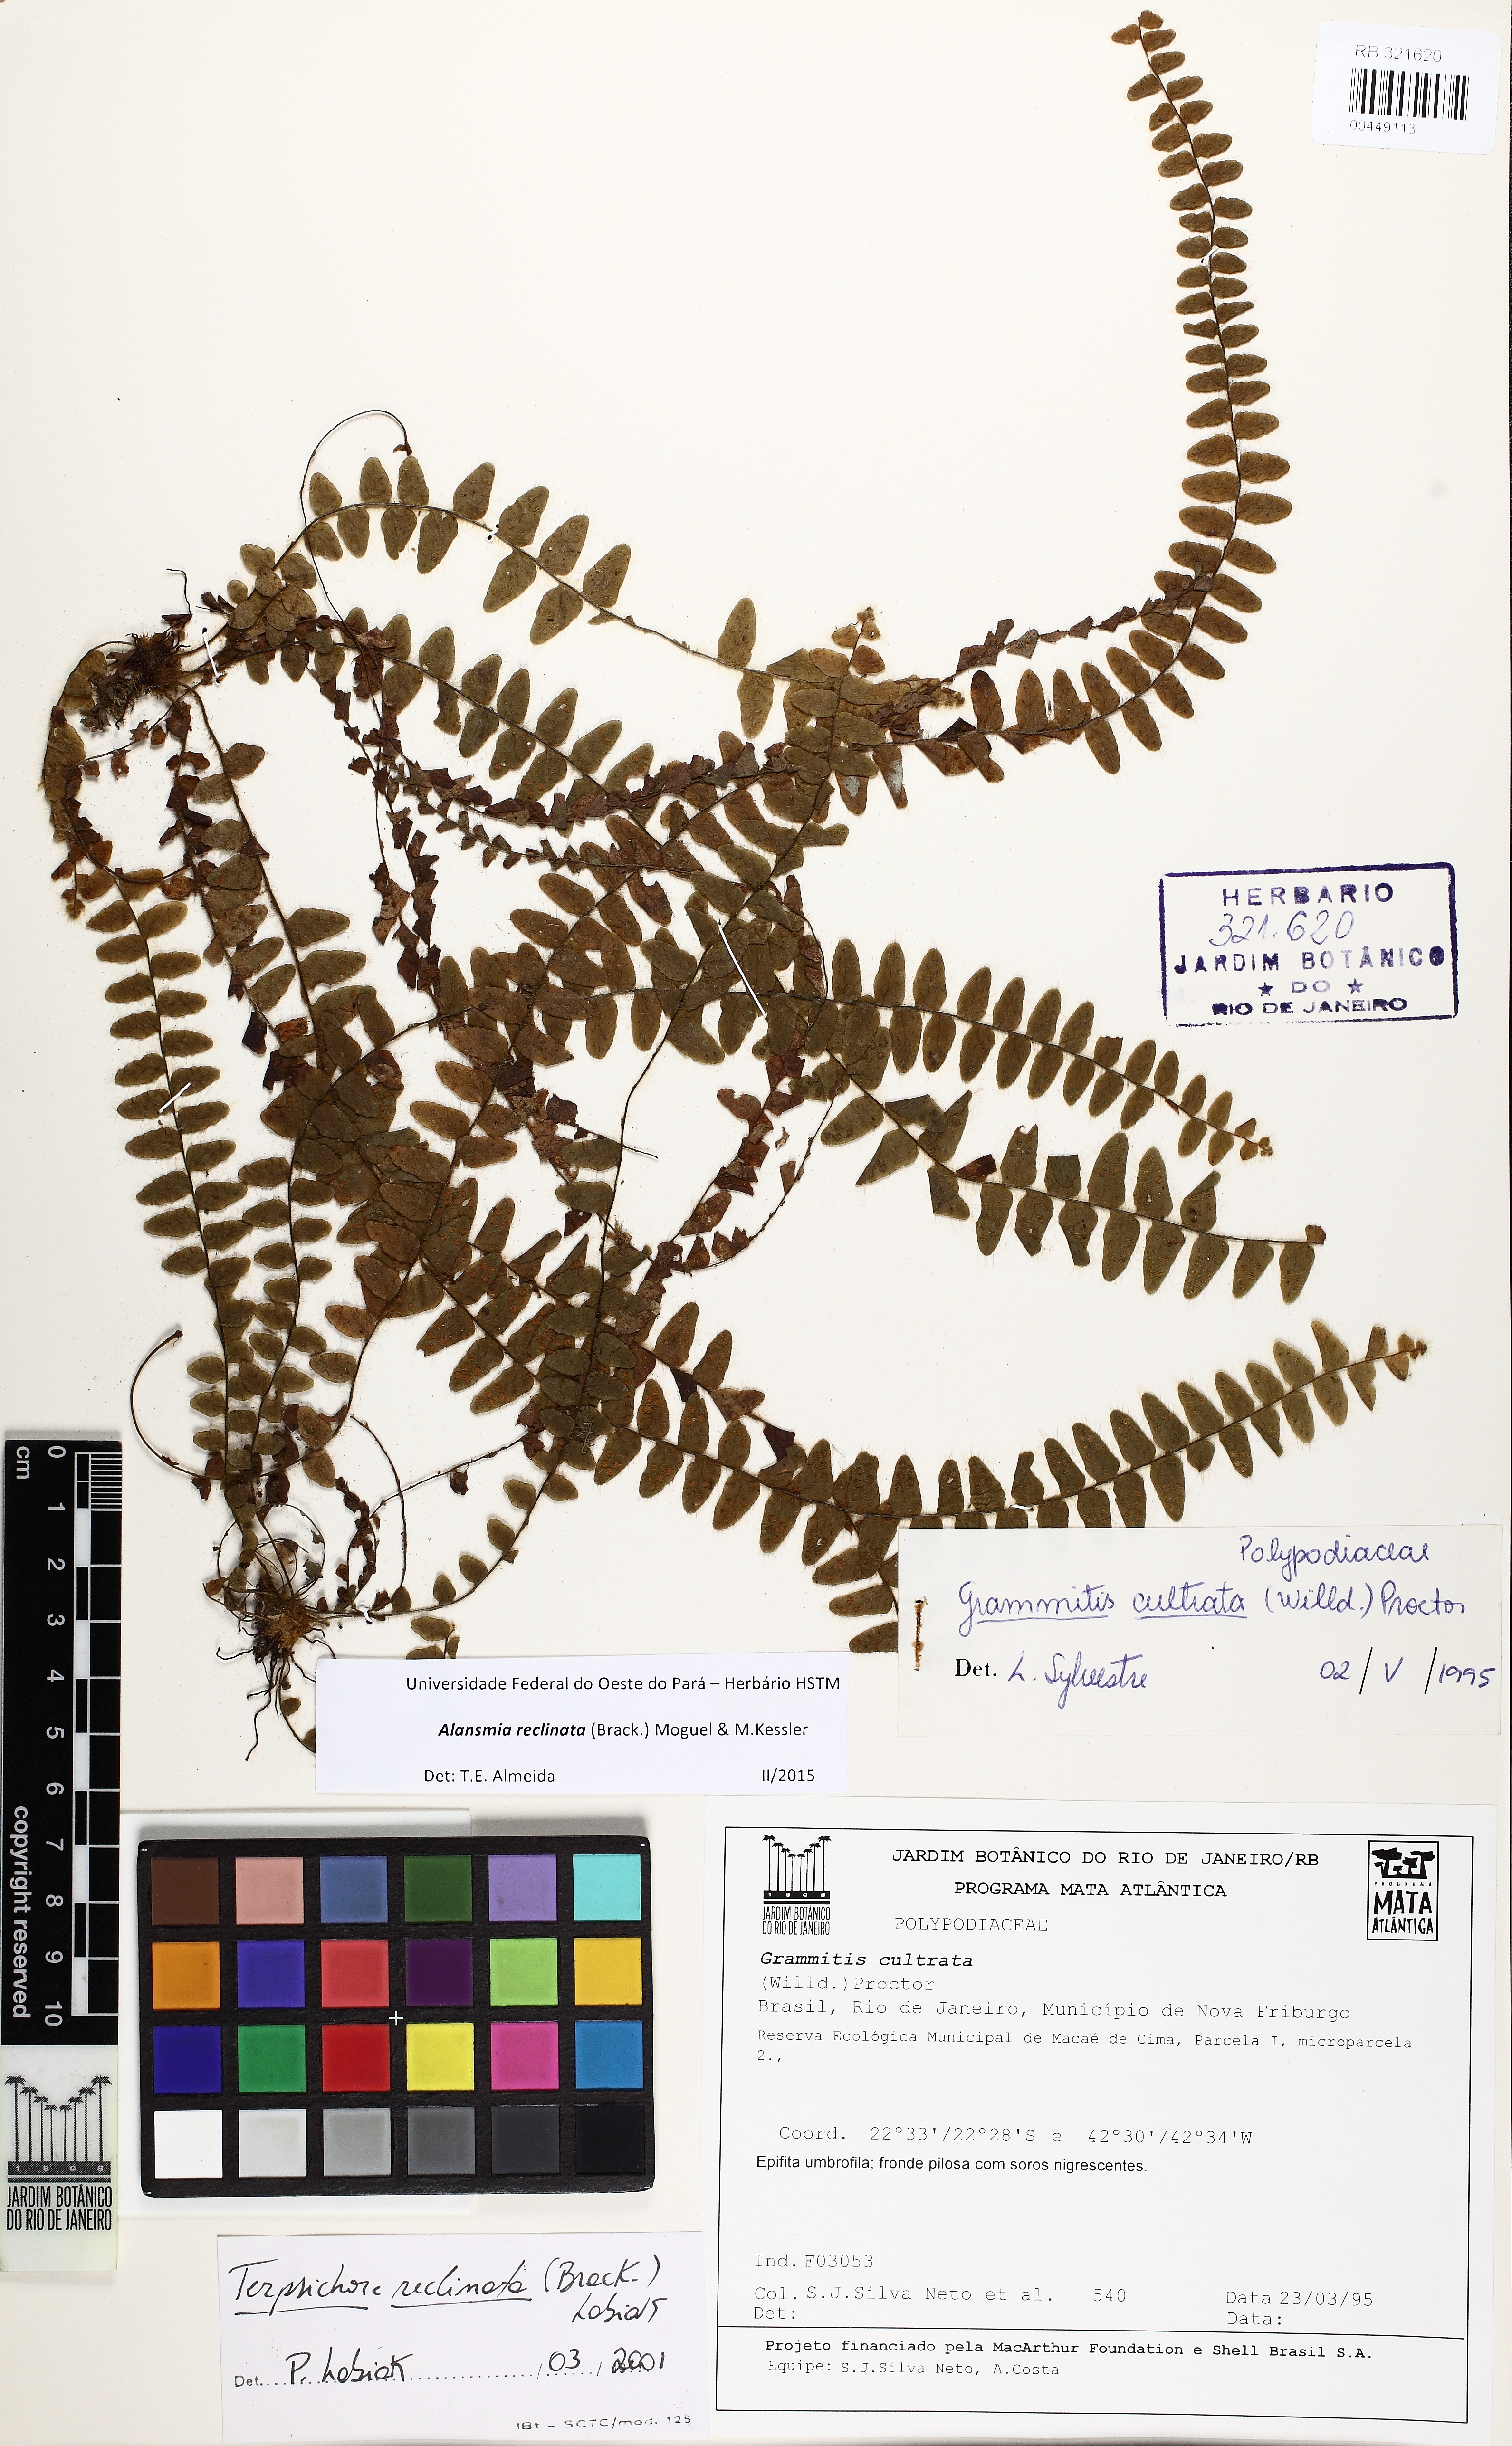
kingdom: Plantae
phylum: Tracheophyta
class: Polypodiopsida
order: Polypodiales
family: Polypodiaceae
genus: Alansmia
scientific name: Alansmia reclinata
